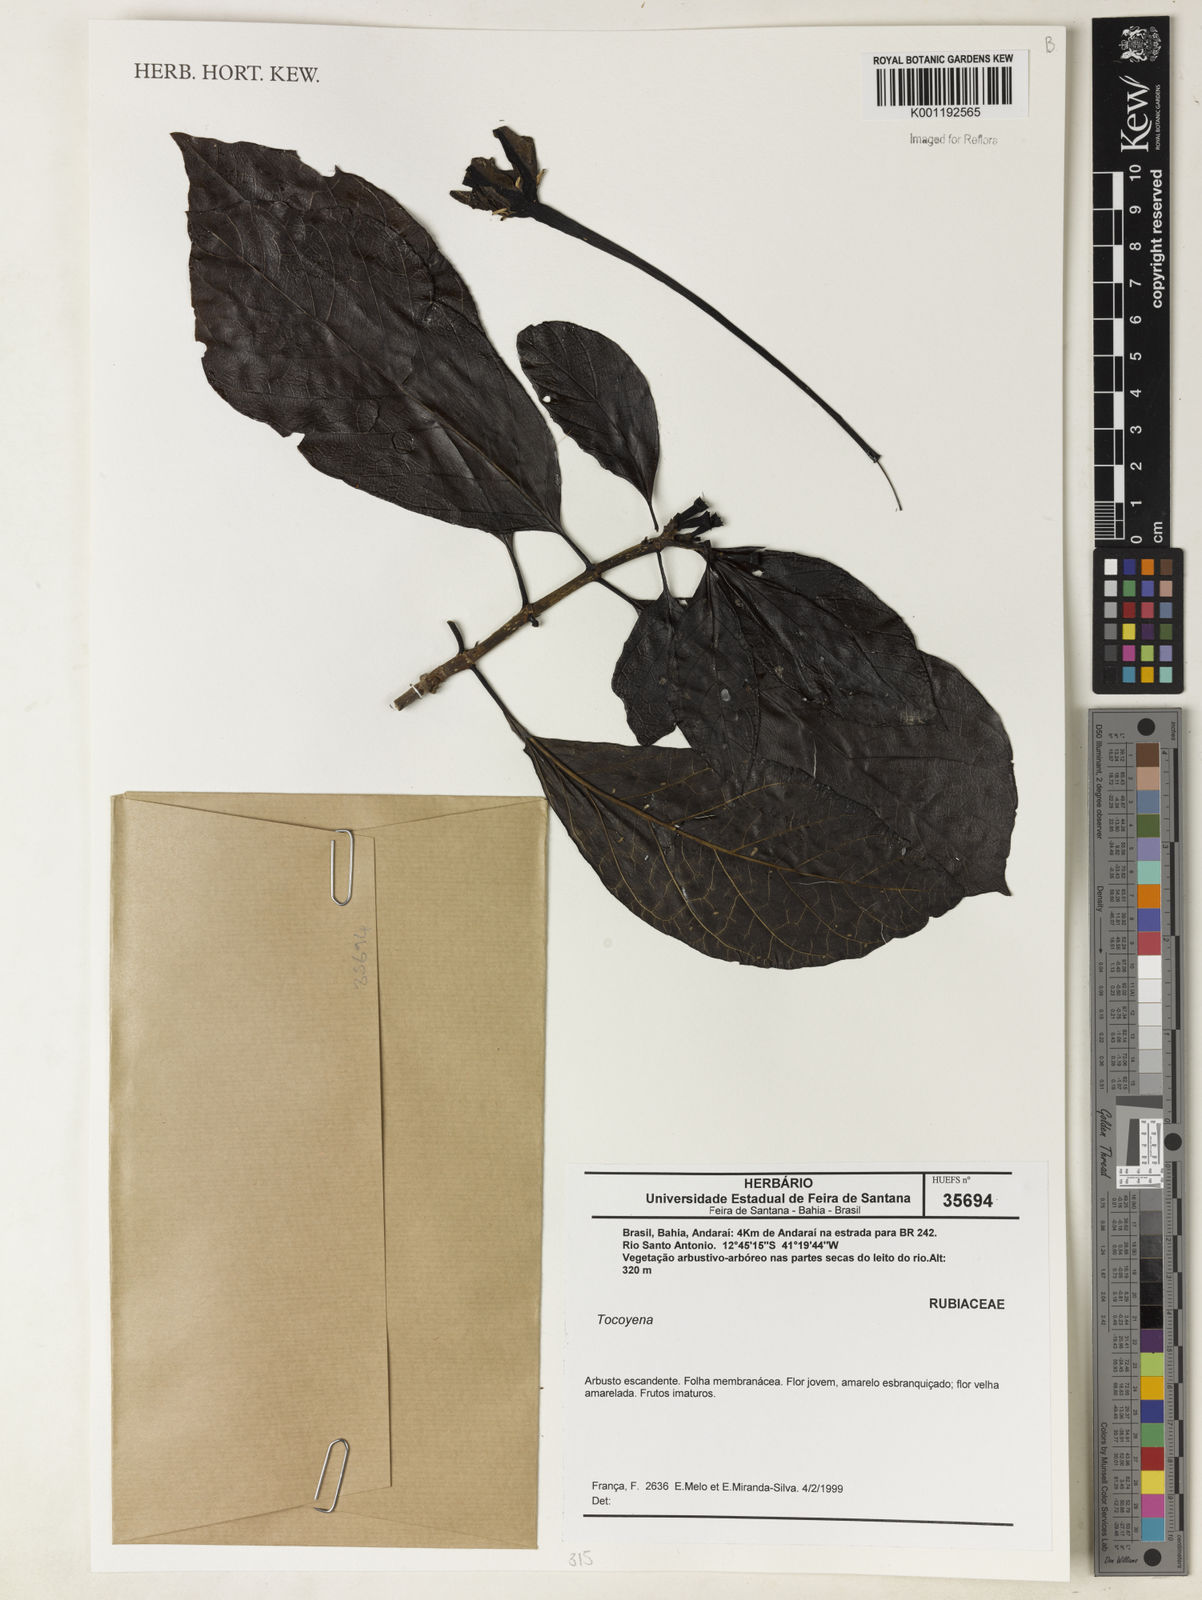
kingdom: Plantae
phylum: Tracheophyta
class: Magnoliopsida
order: Gentianales
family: Rubiaceae
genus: Tocoyena
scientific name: Tocoyena
